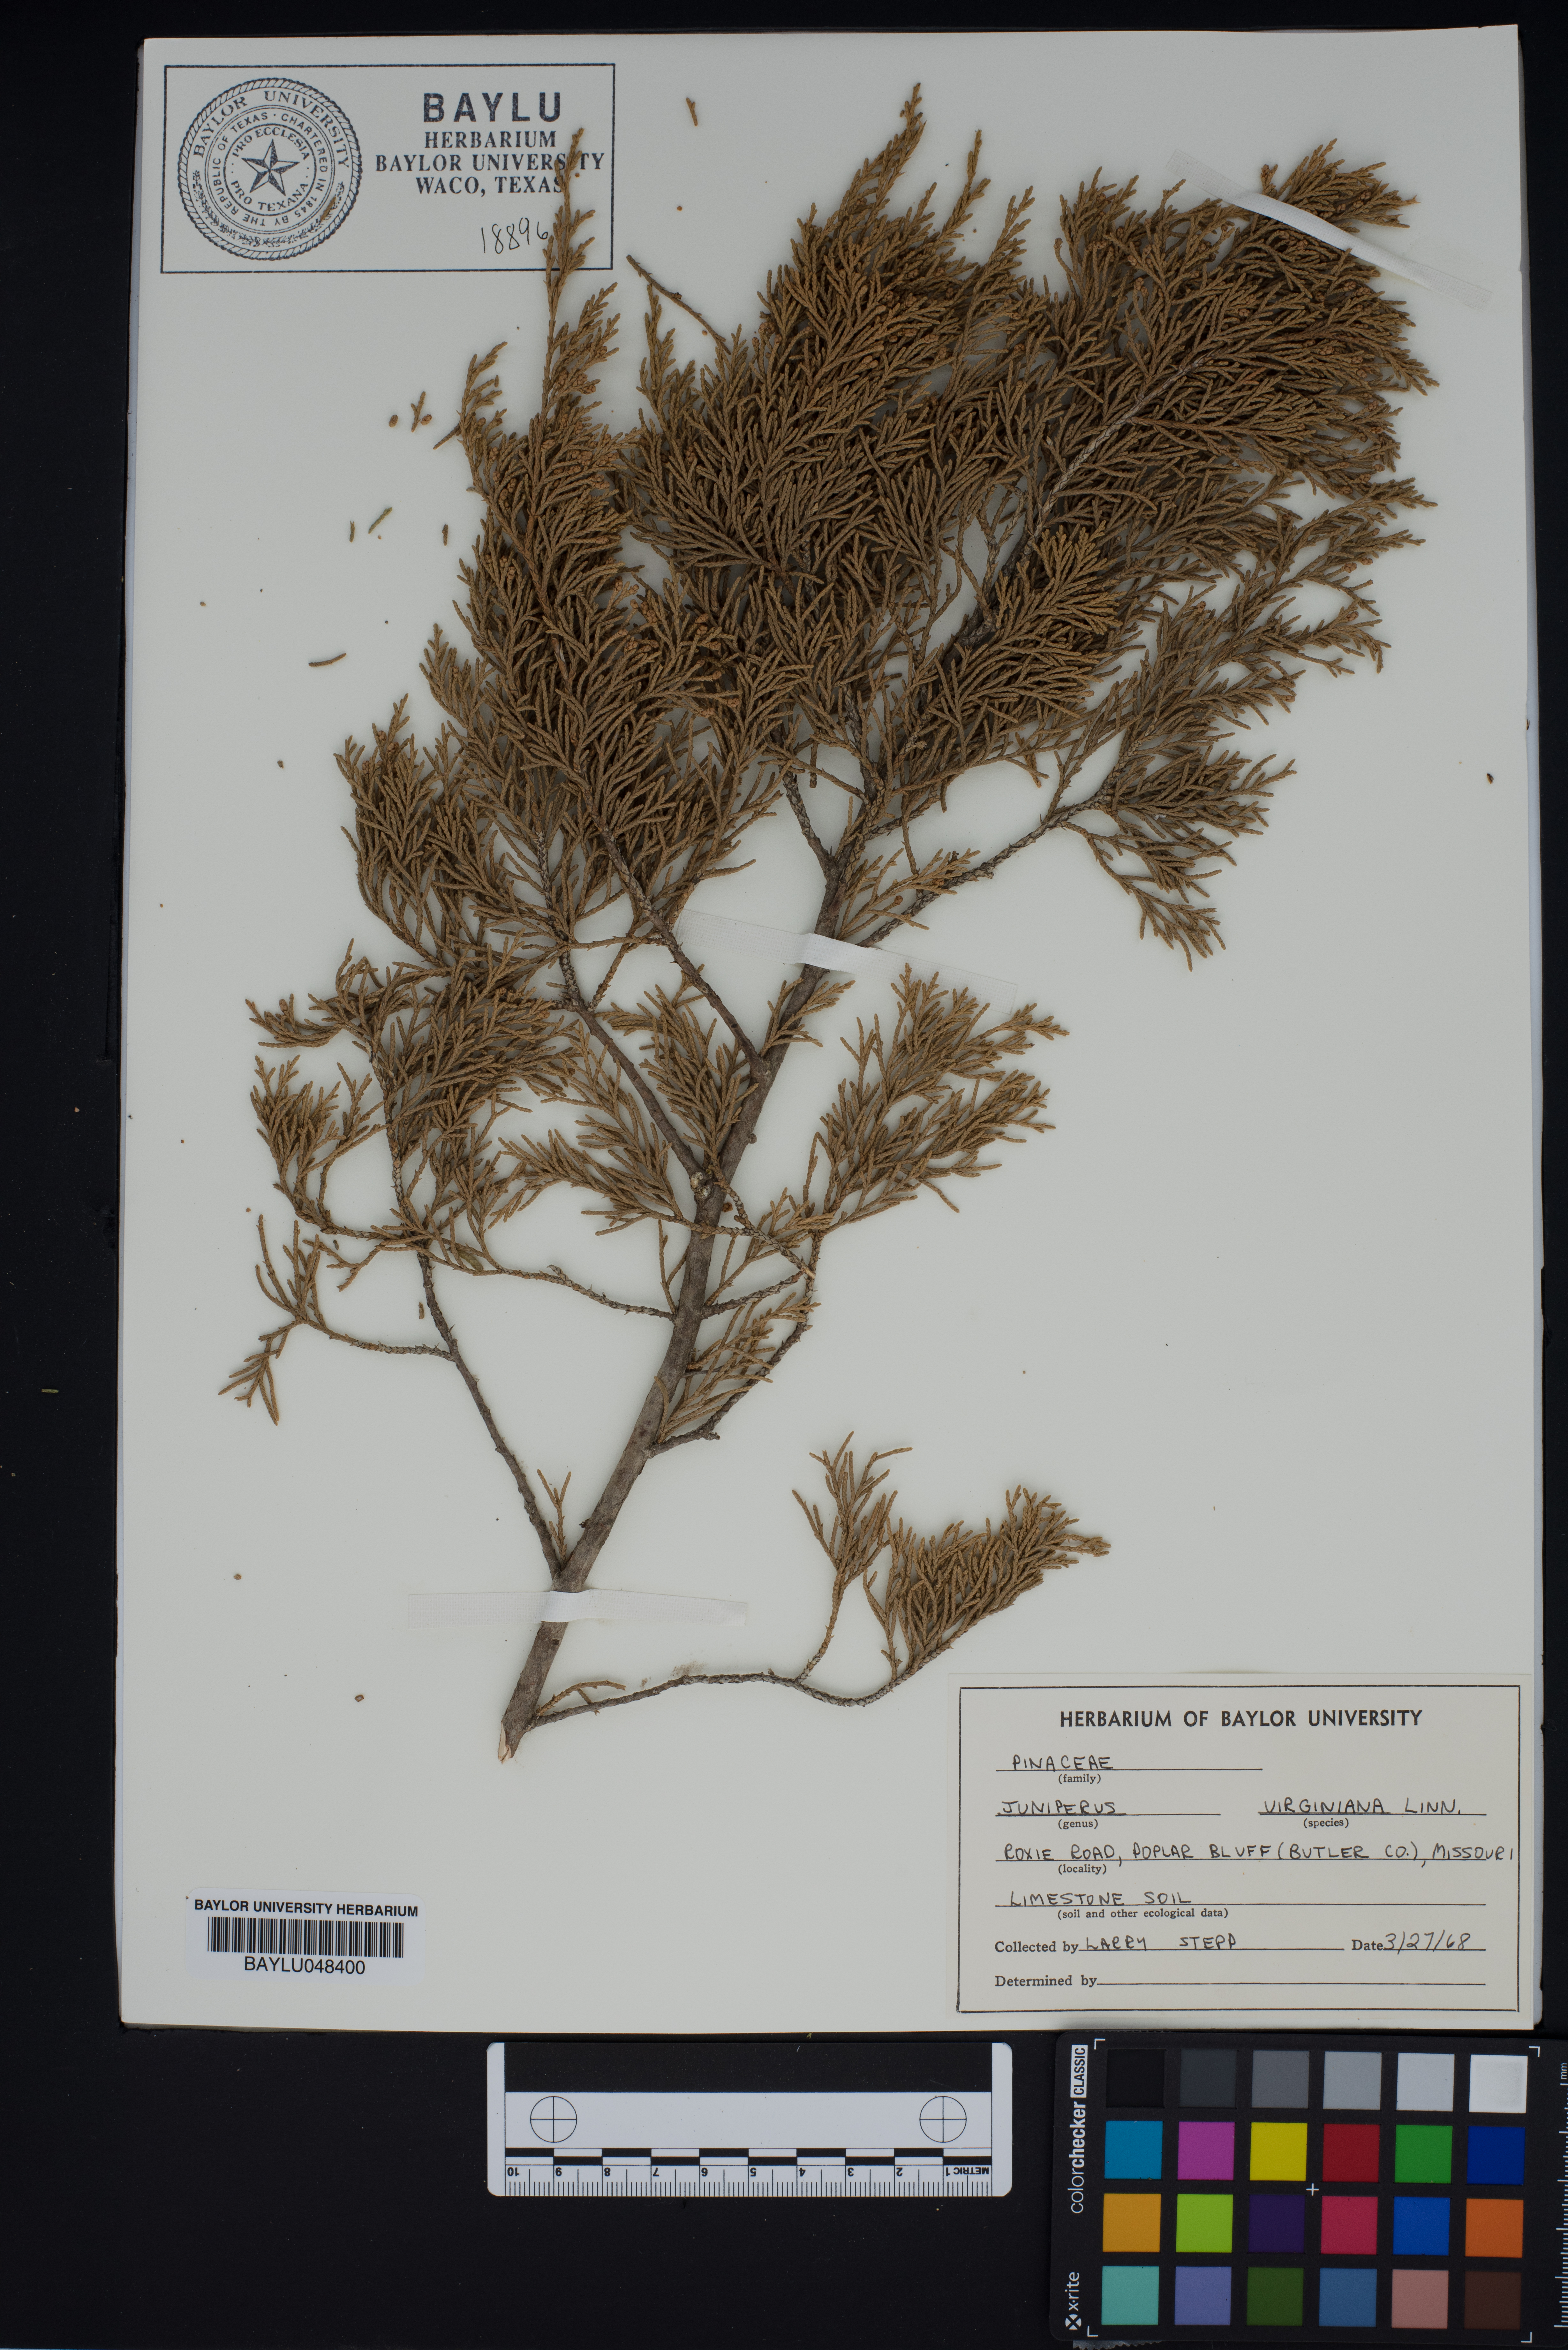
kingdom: Plantae
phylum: Tracheophyta
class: Pinopsida
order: Pinales
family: Cupressaceae
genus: Juniperus
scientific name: Juniperus virginiana
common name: Red juniper
